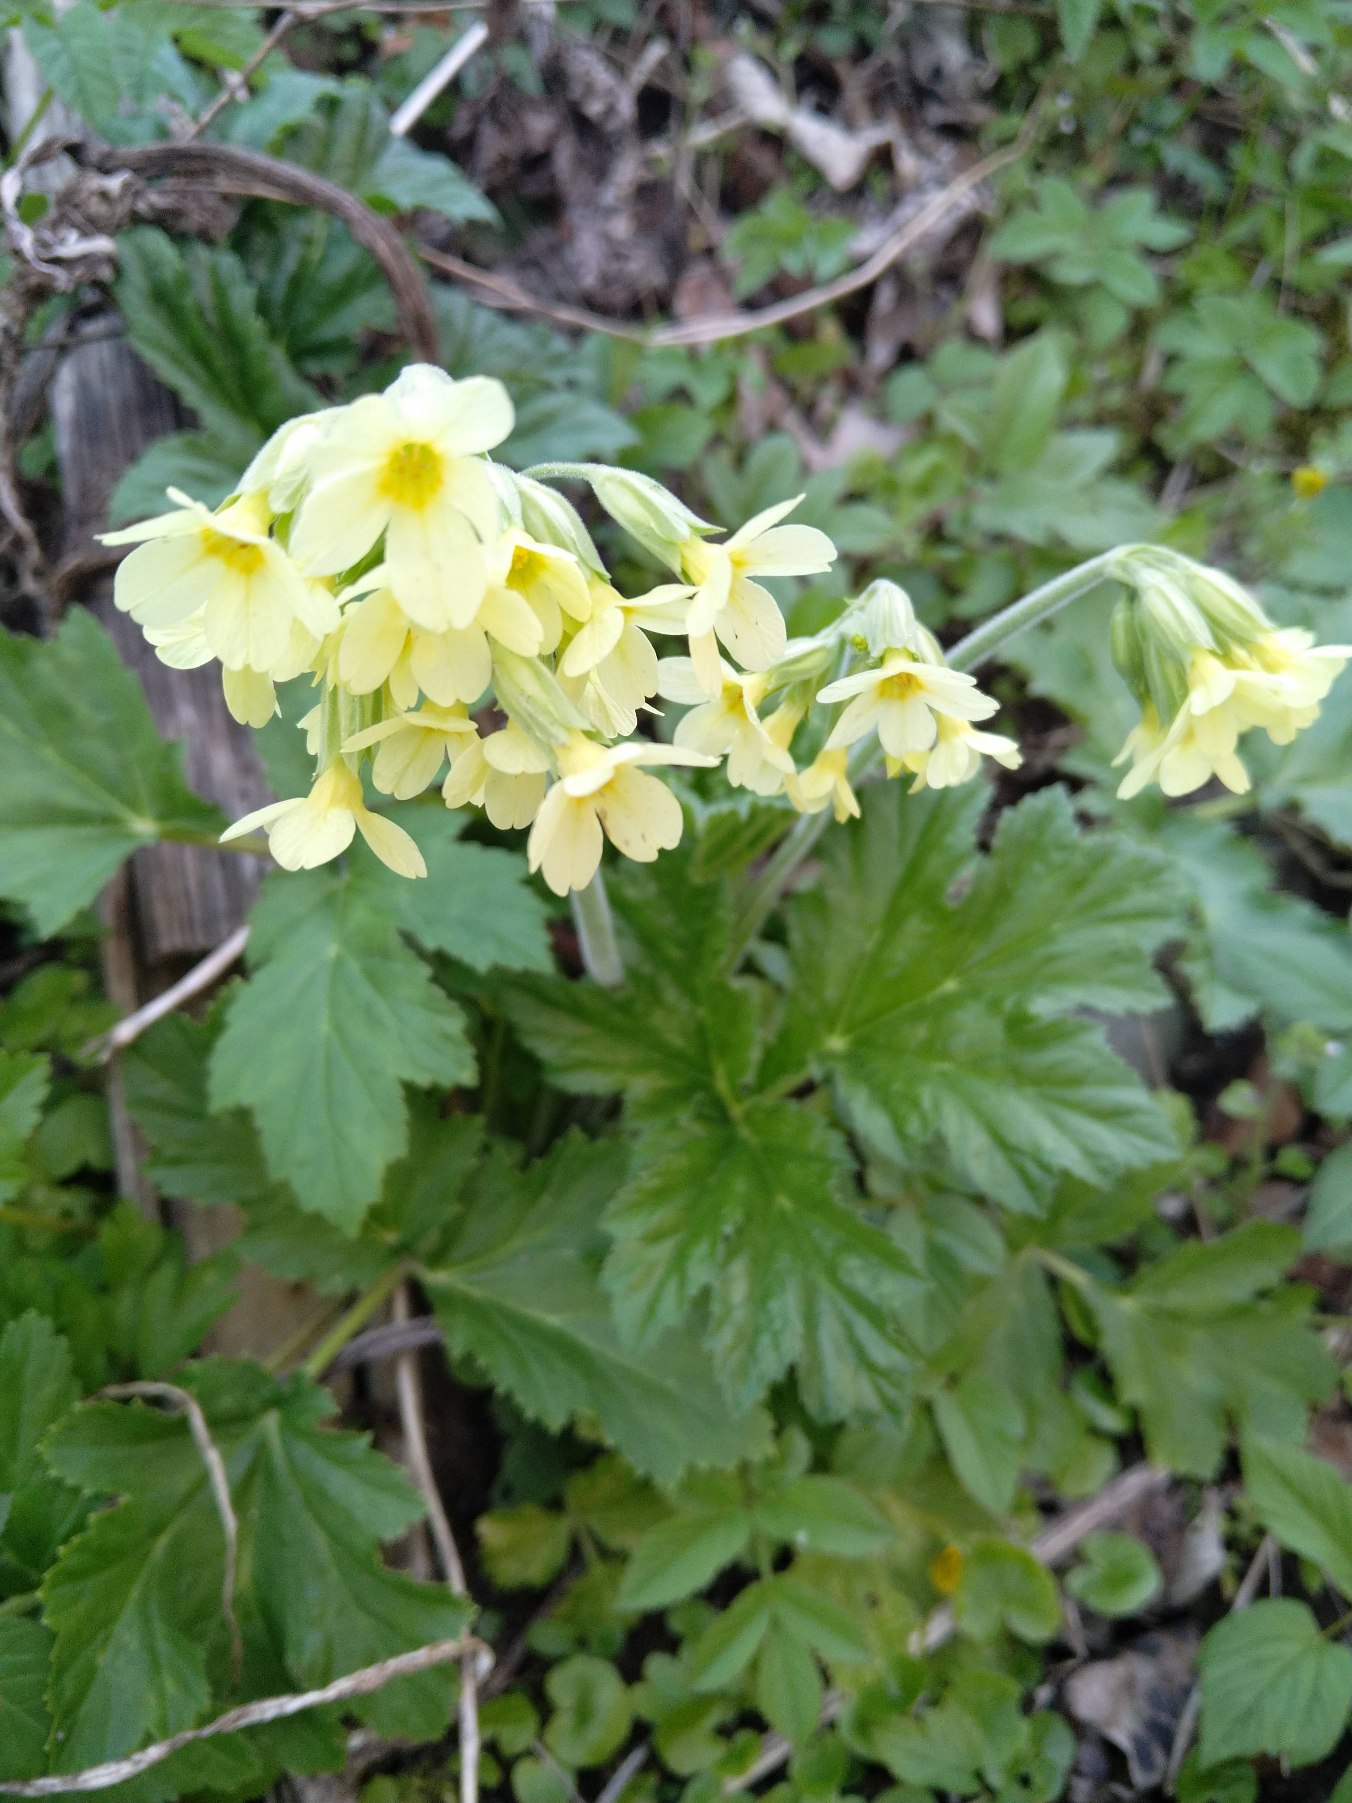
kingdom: Plantae
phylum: Tracheophyta
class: Magnoliopsida
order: Ericales
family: Primulaceae
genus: Primula
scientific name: Primula elatior
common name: Fladkravet kodriver
